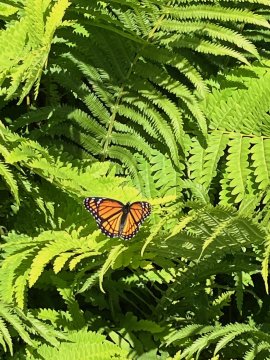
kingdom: Animalia
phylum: Arthropoda
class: Insecta
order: Lepidoptera
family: Nymphalidae
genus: Limenitis
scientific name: Limenitis archippus
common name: Viceroy
